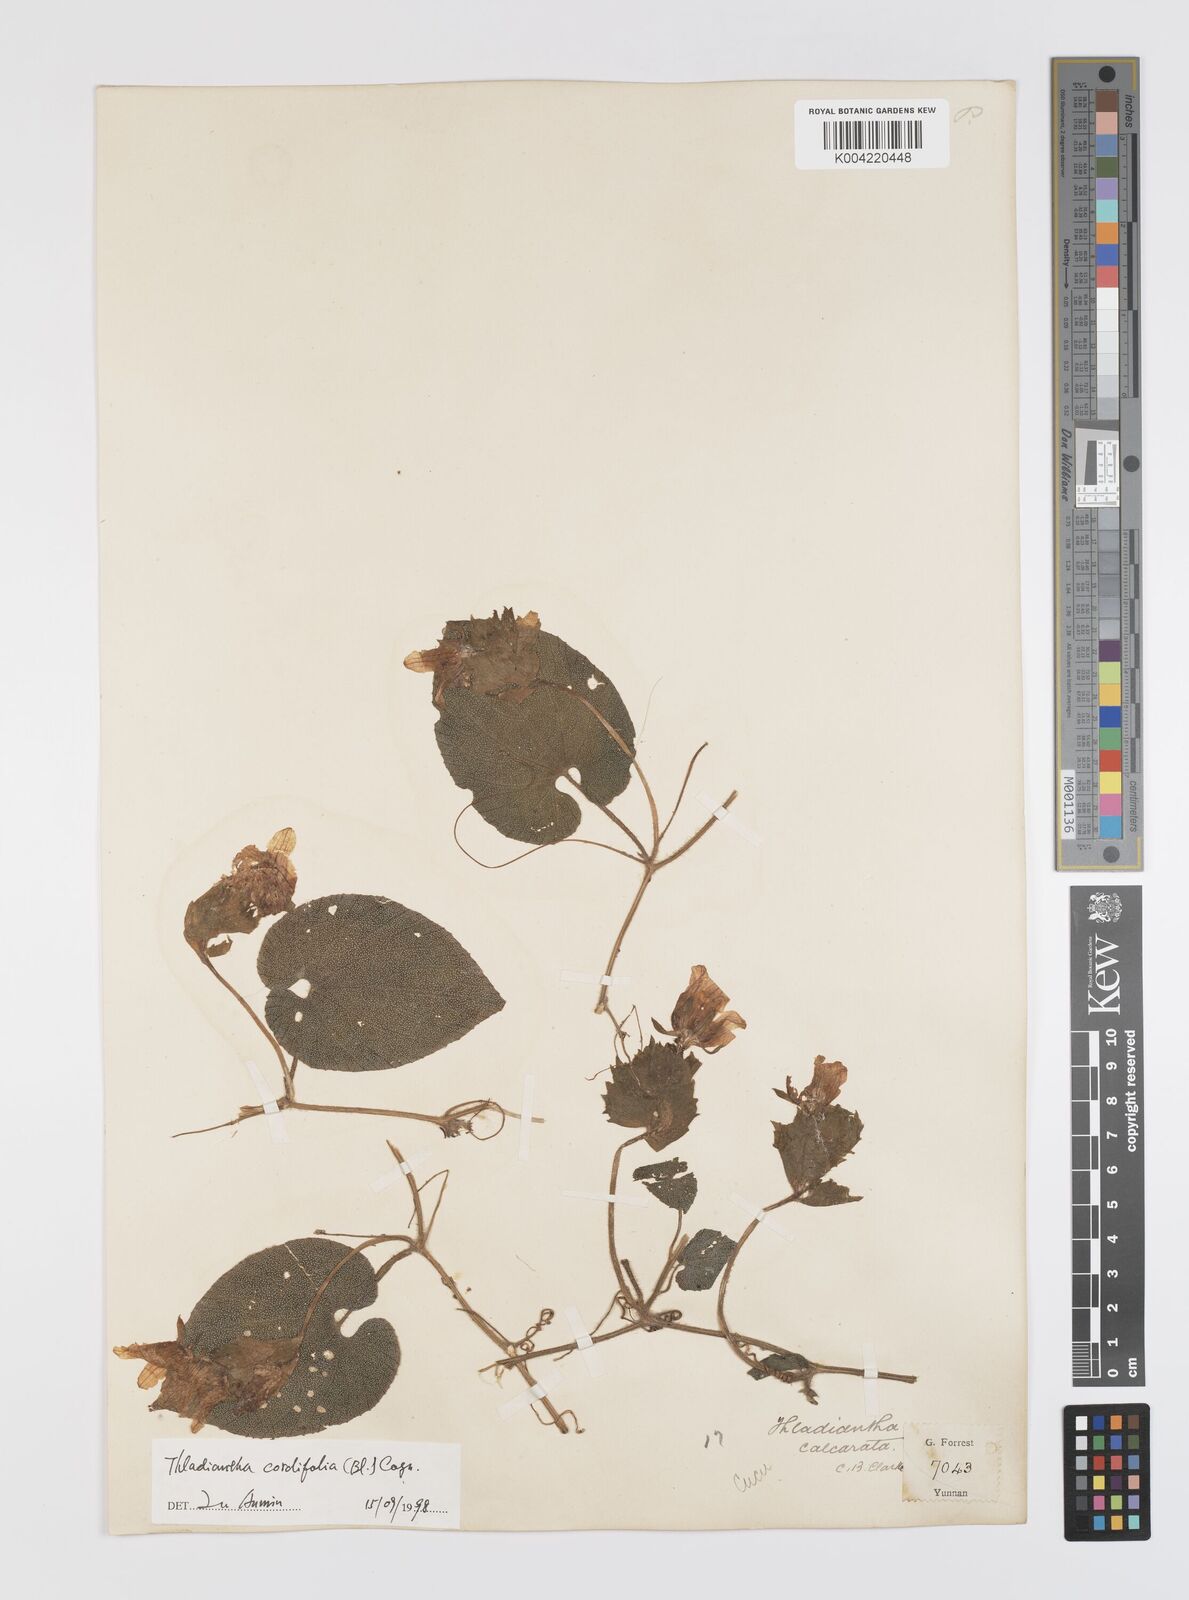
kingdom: Plantae
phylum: Tracheophyta
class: Magnoliopsida
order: Cucurbitales
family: Cucurbitaceae
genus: Thladiantha
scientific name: Thladiantha cordifolia
